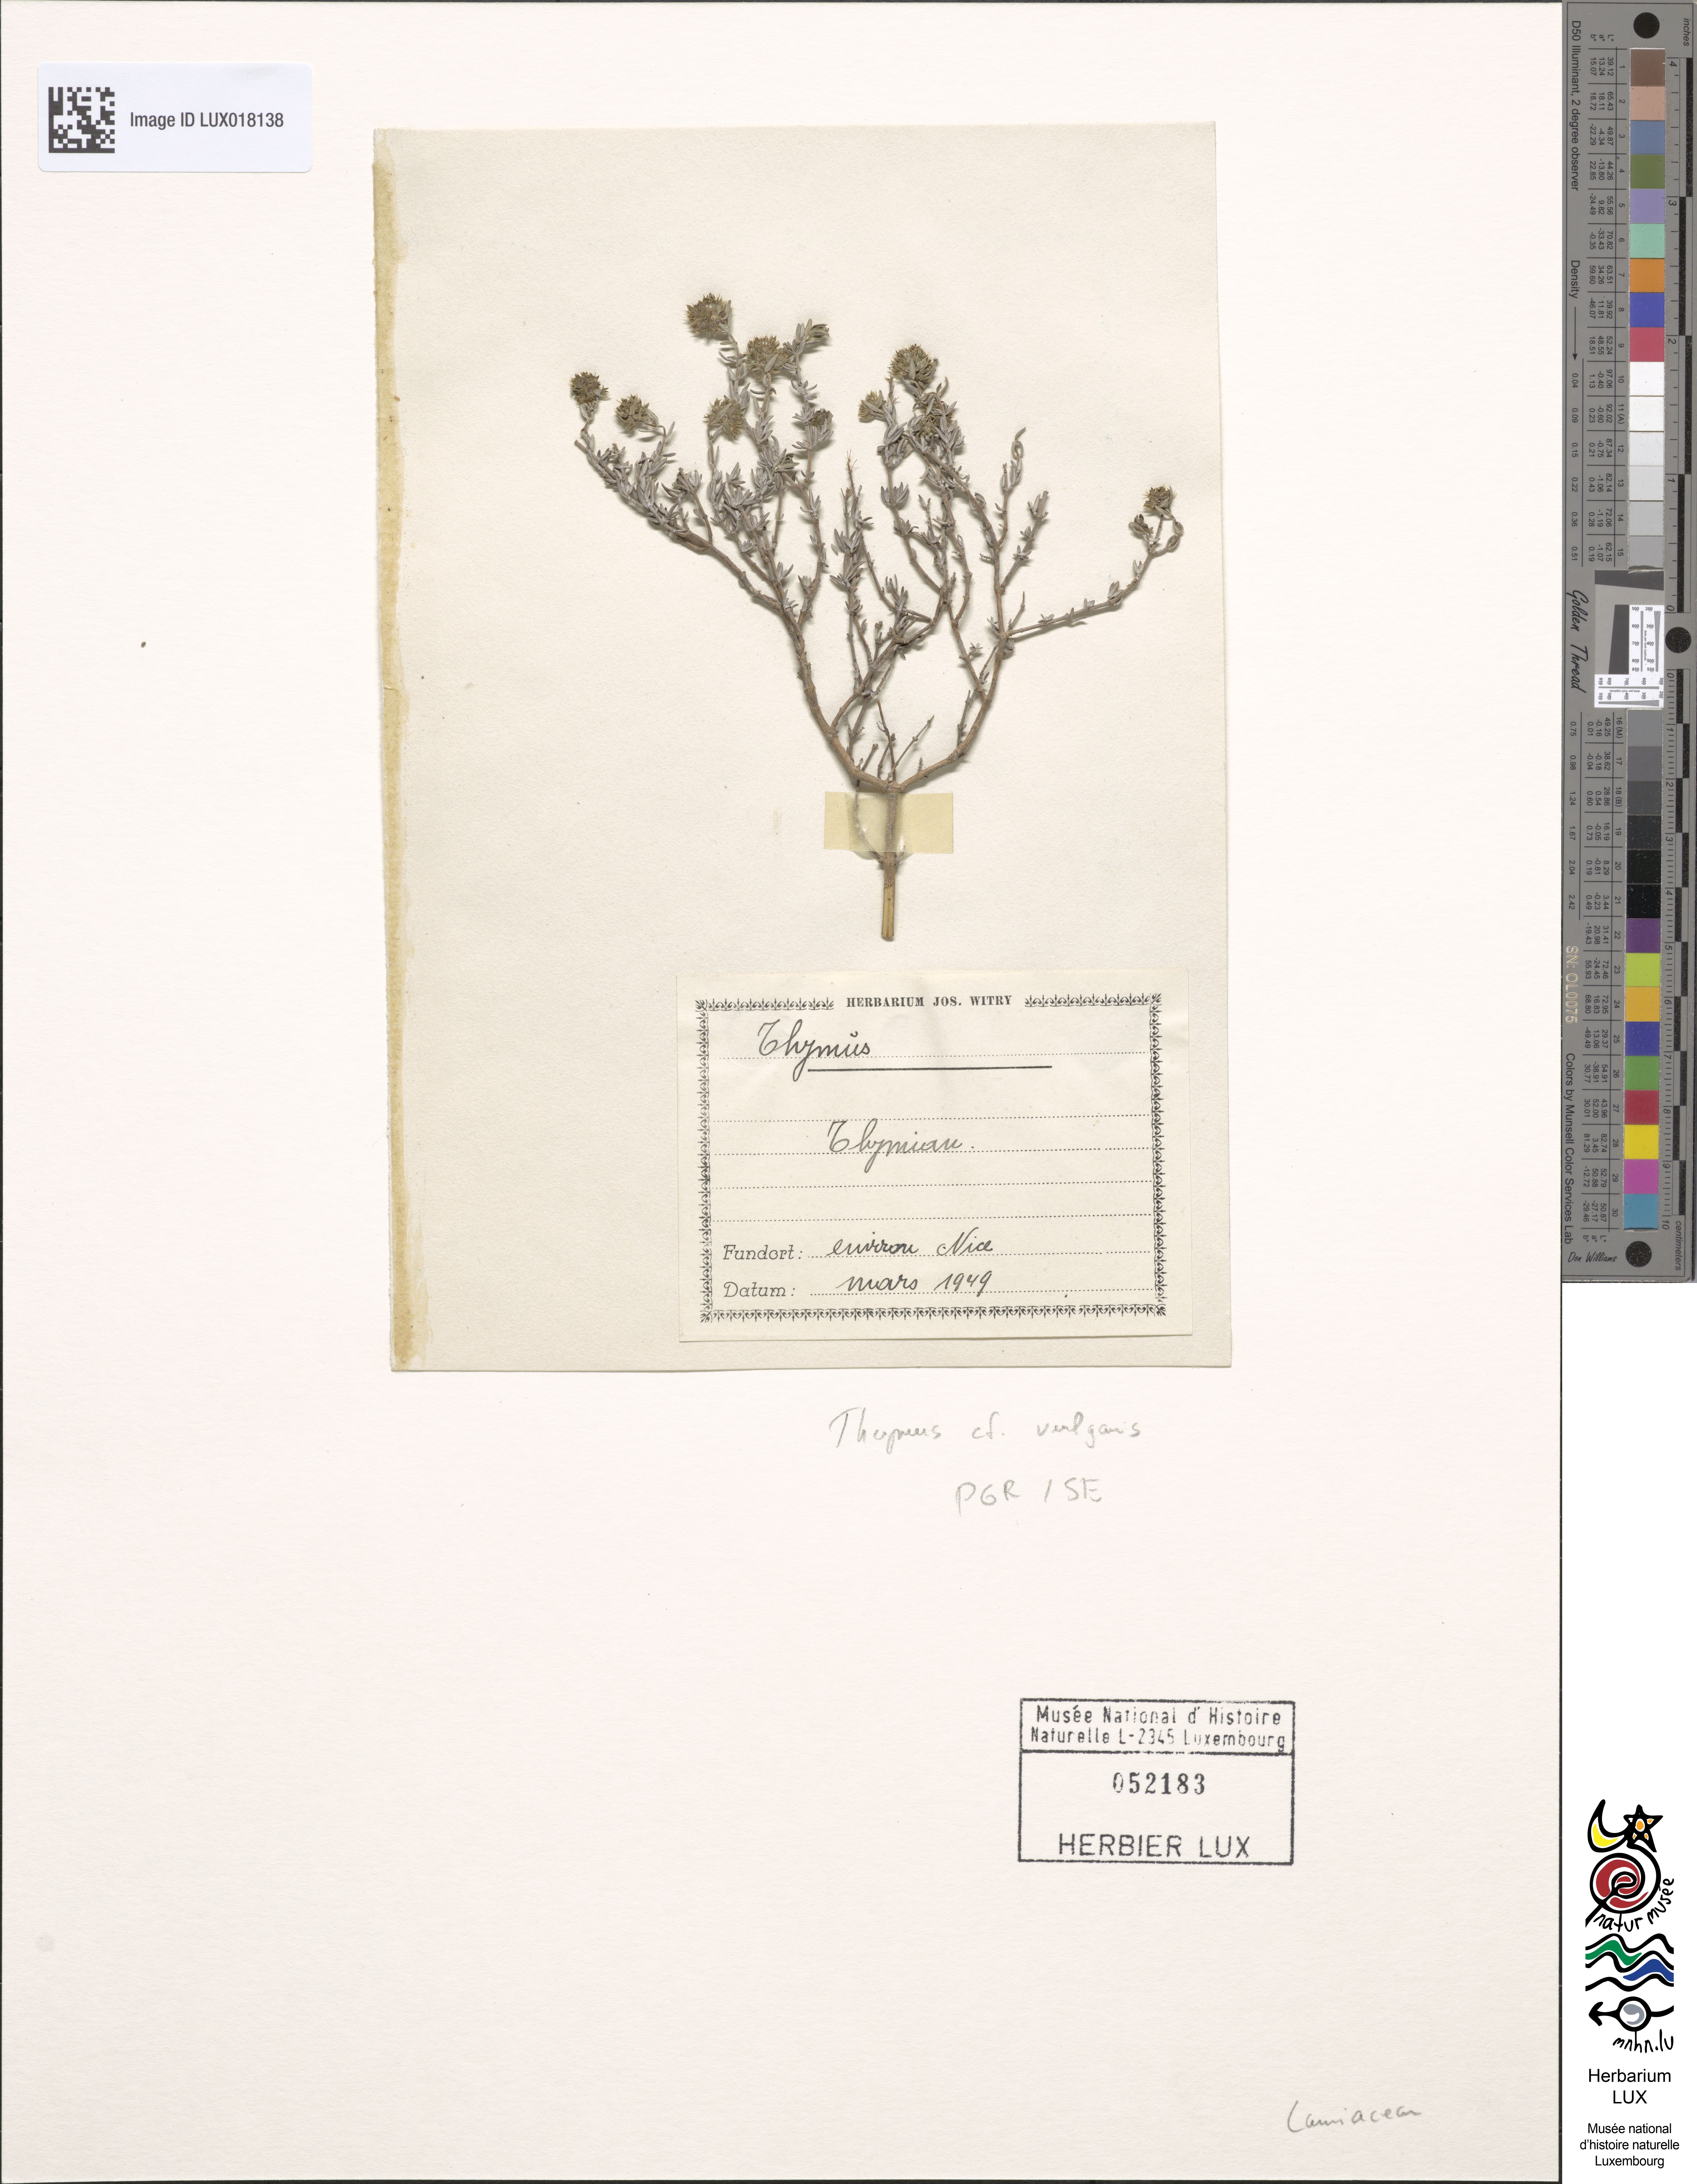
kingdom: Plantae
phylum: Tracheophyta
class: Magnoliopsida
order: Lamiales
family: Lamiaceae
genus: Thymus
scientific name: Thymus vulgaris
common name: Garden thyme
